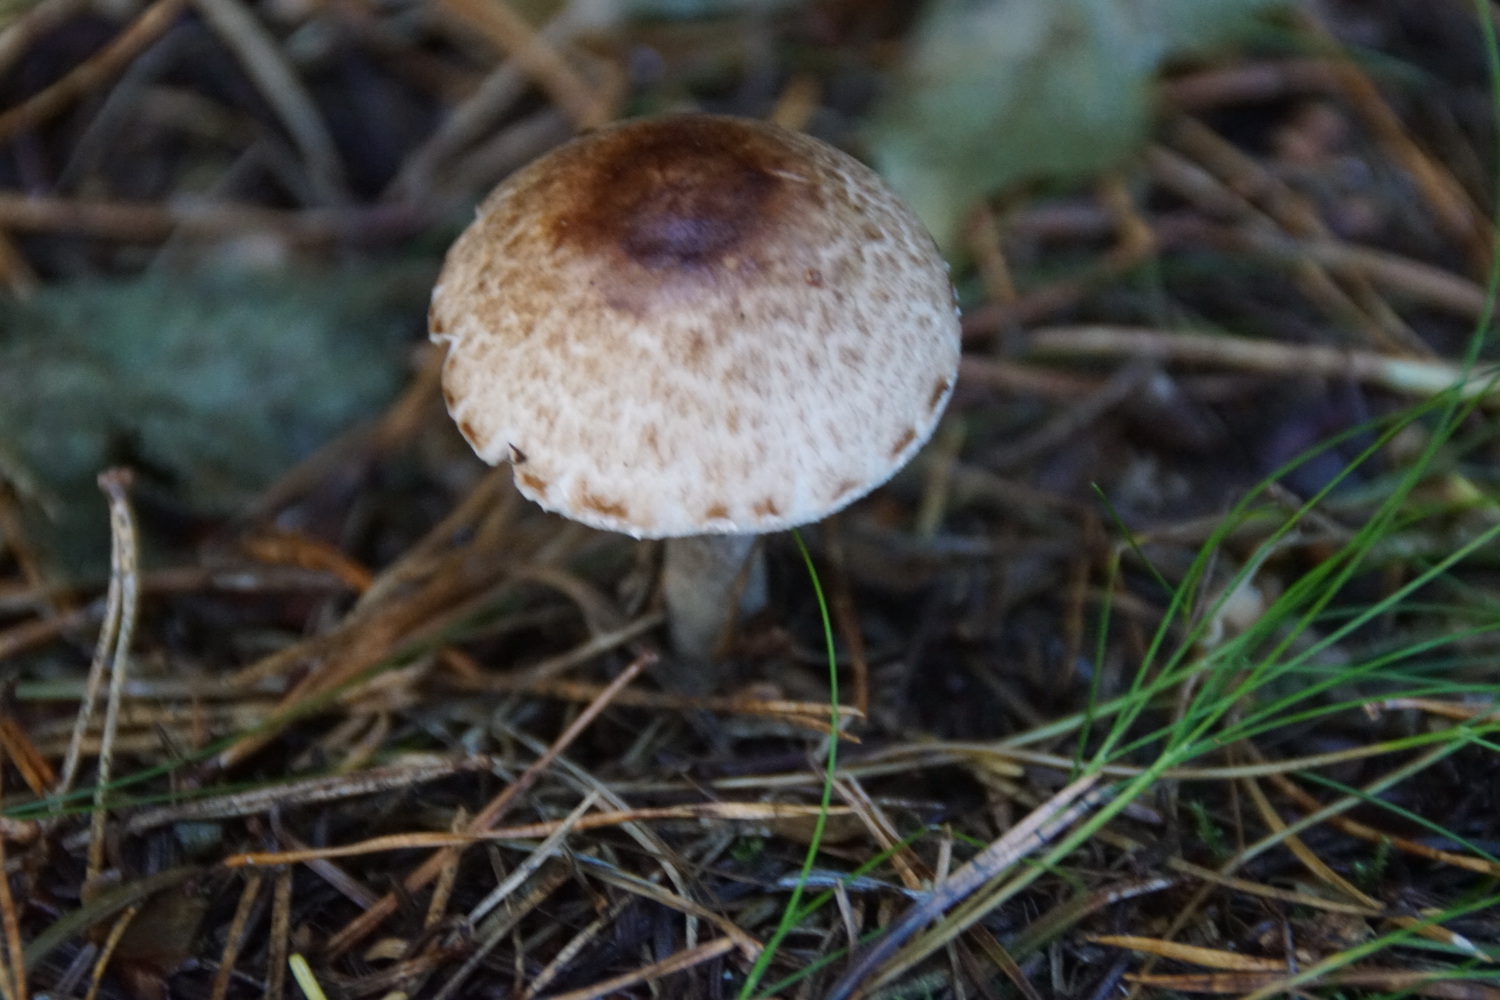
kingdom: Fungi
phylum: Basidiomycota
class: Agaricomycetes
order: Agaricales
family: Agaricaceae
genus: Agaricus
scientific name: Agaricus impudicus
